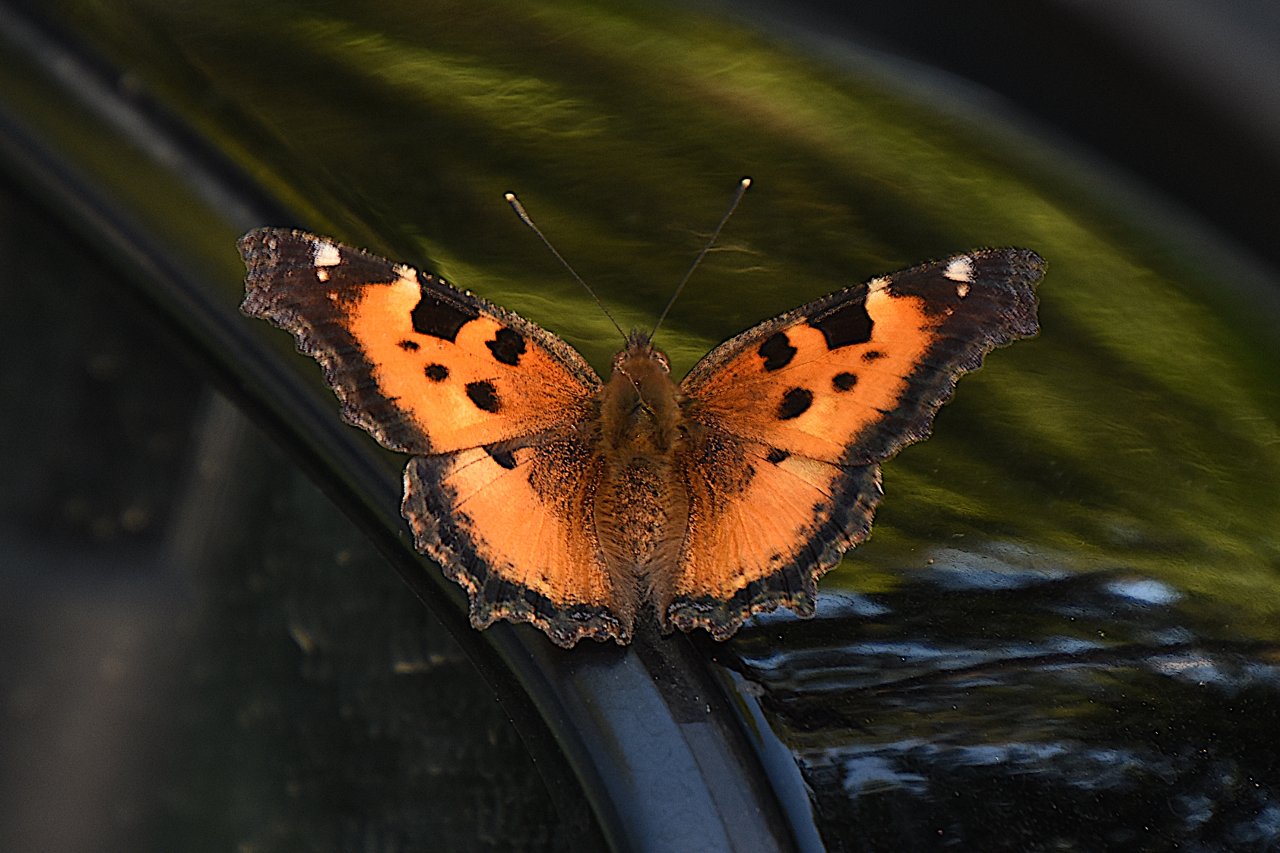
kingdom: Animalia
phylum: Arthropoda
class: Insecta
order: Lepidoptera
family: Nymphalidae
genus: Nymphalis
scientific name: Nymphalis californica
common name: California Tortoiseshell
